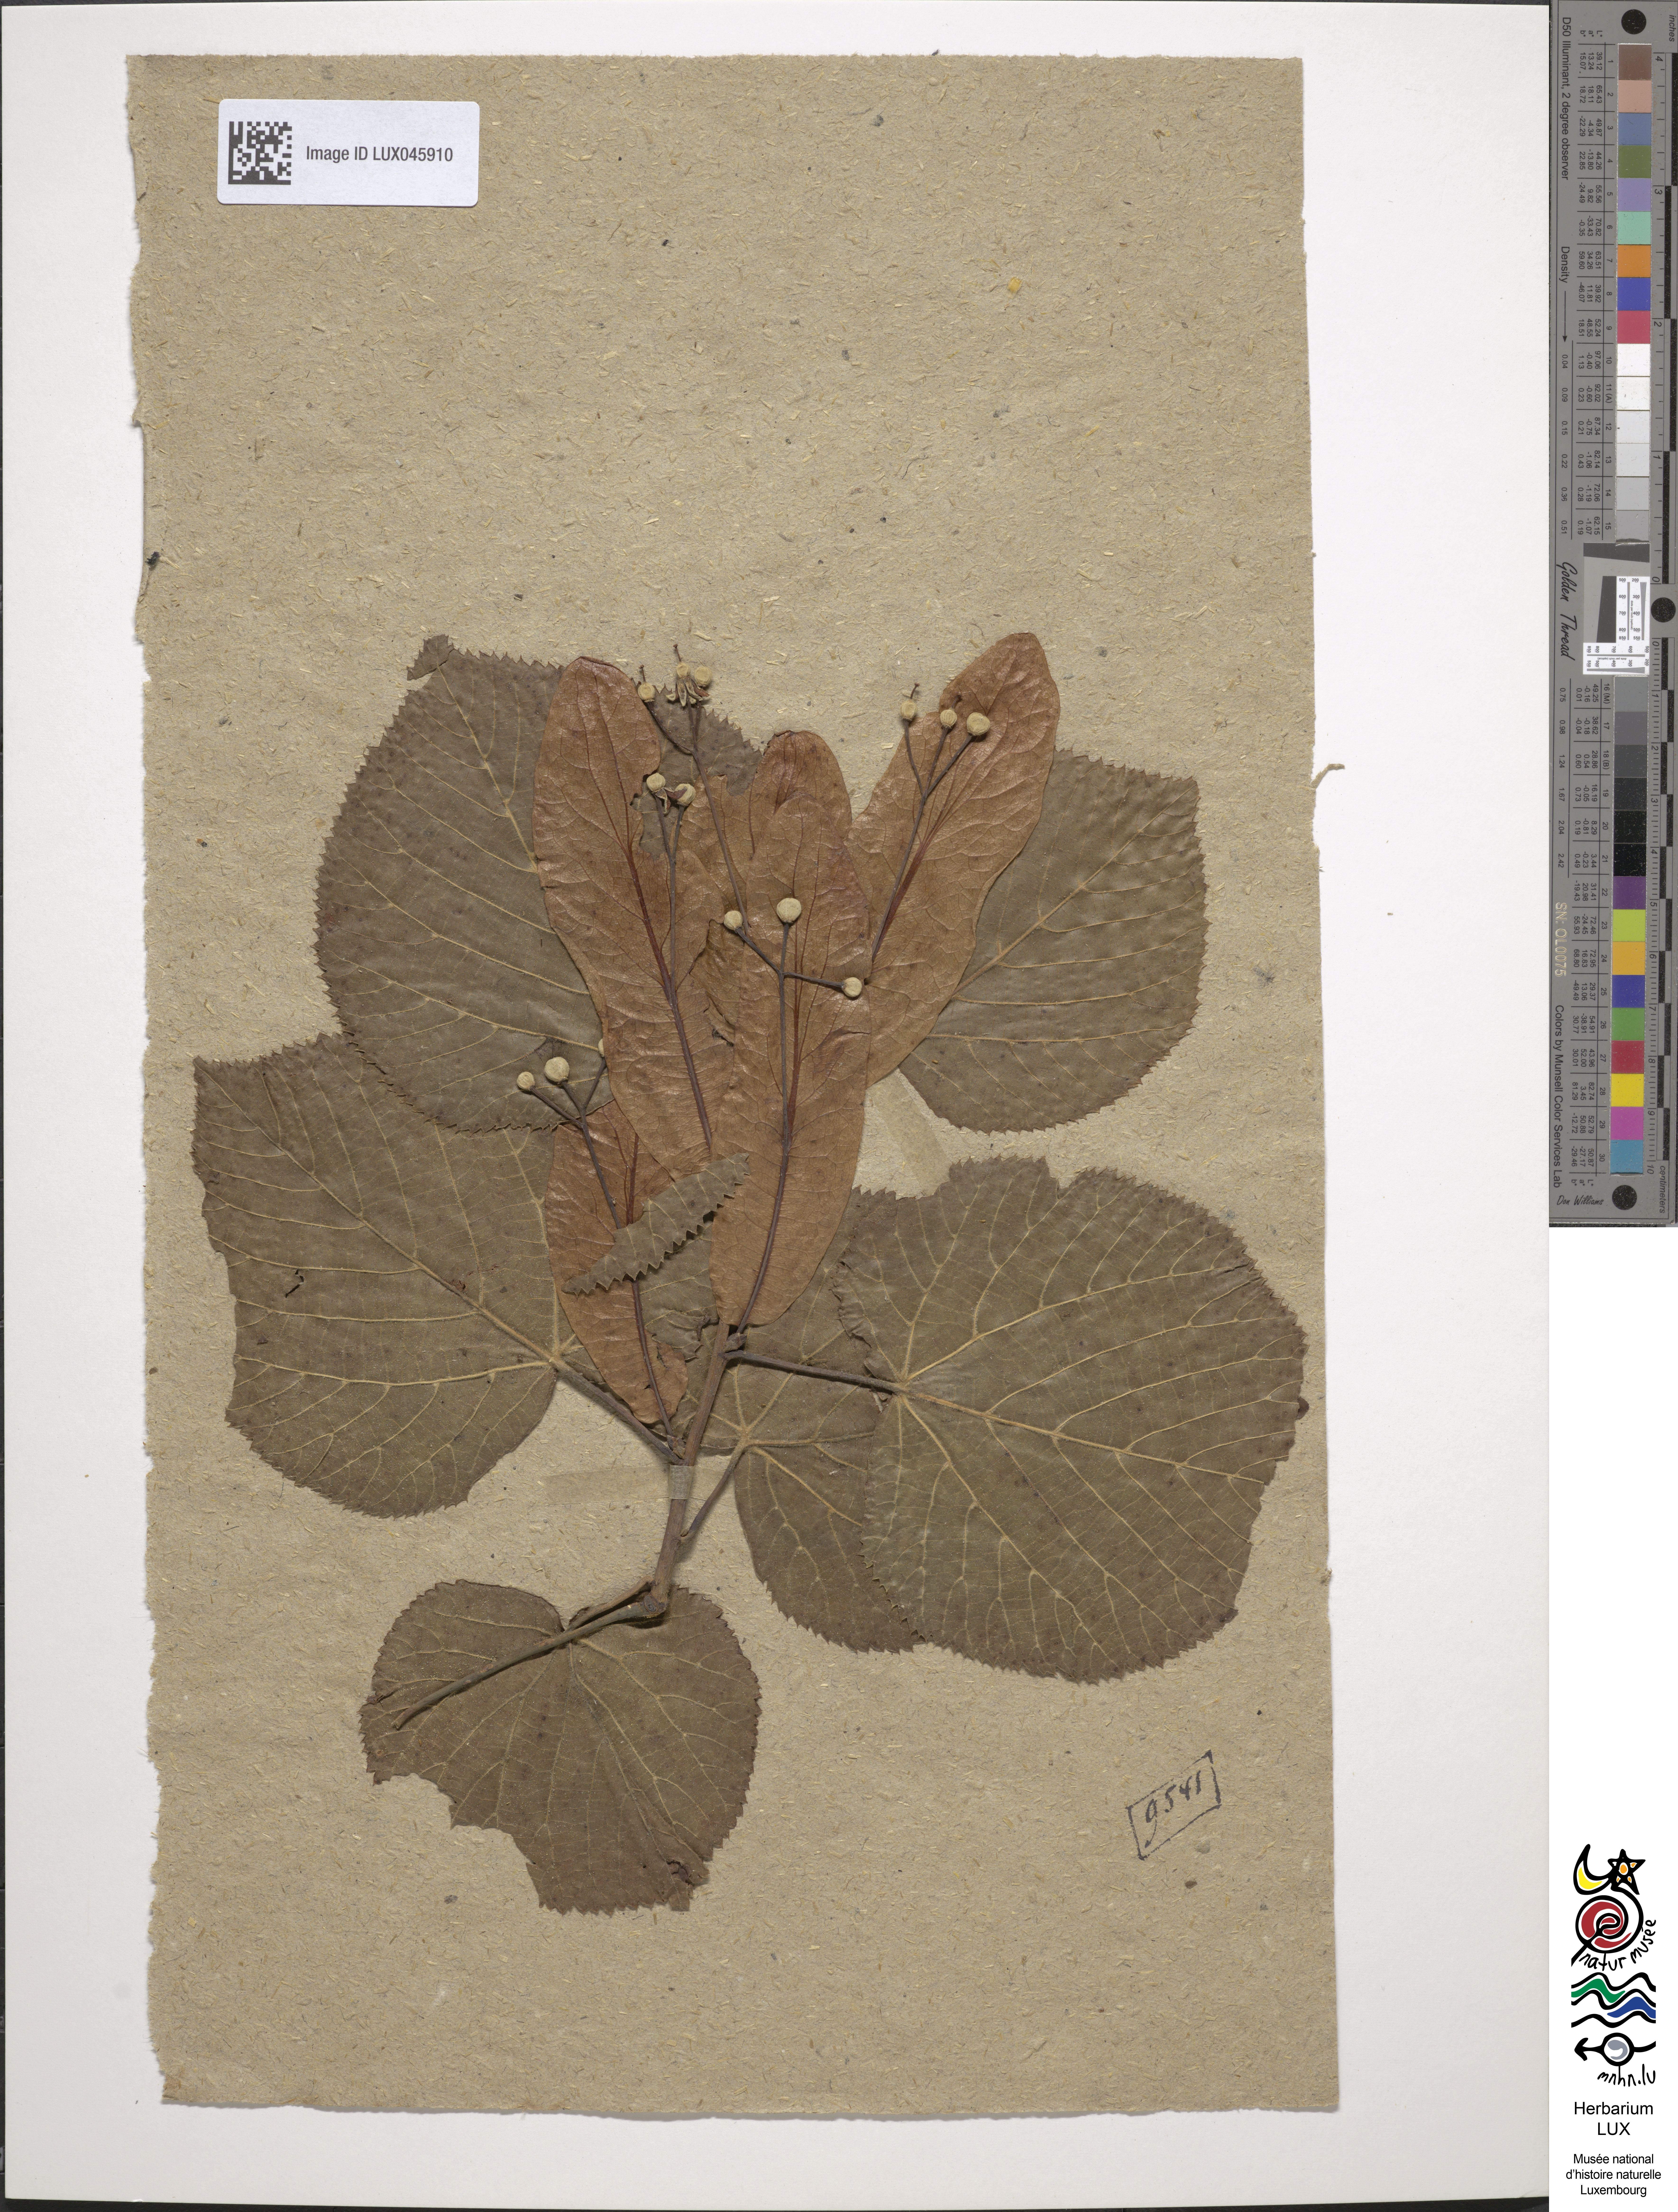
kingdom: Plantae
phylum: Tracheophyta
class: Magnoliopsida
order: Malvales
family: Malvaceae
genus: Tilia
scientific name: Tilia platyphyllos
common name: Large-leaved lime
